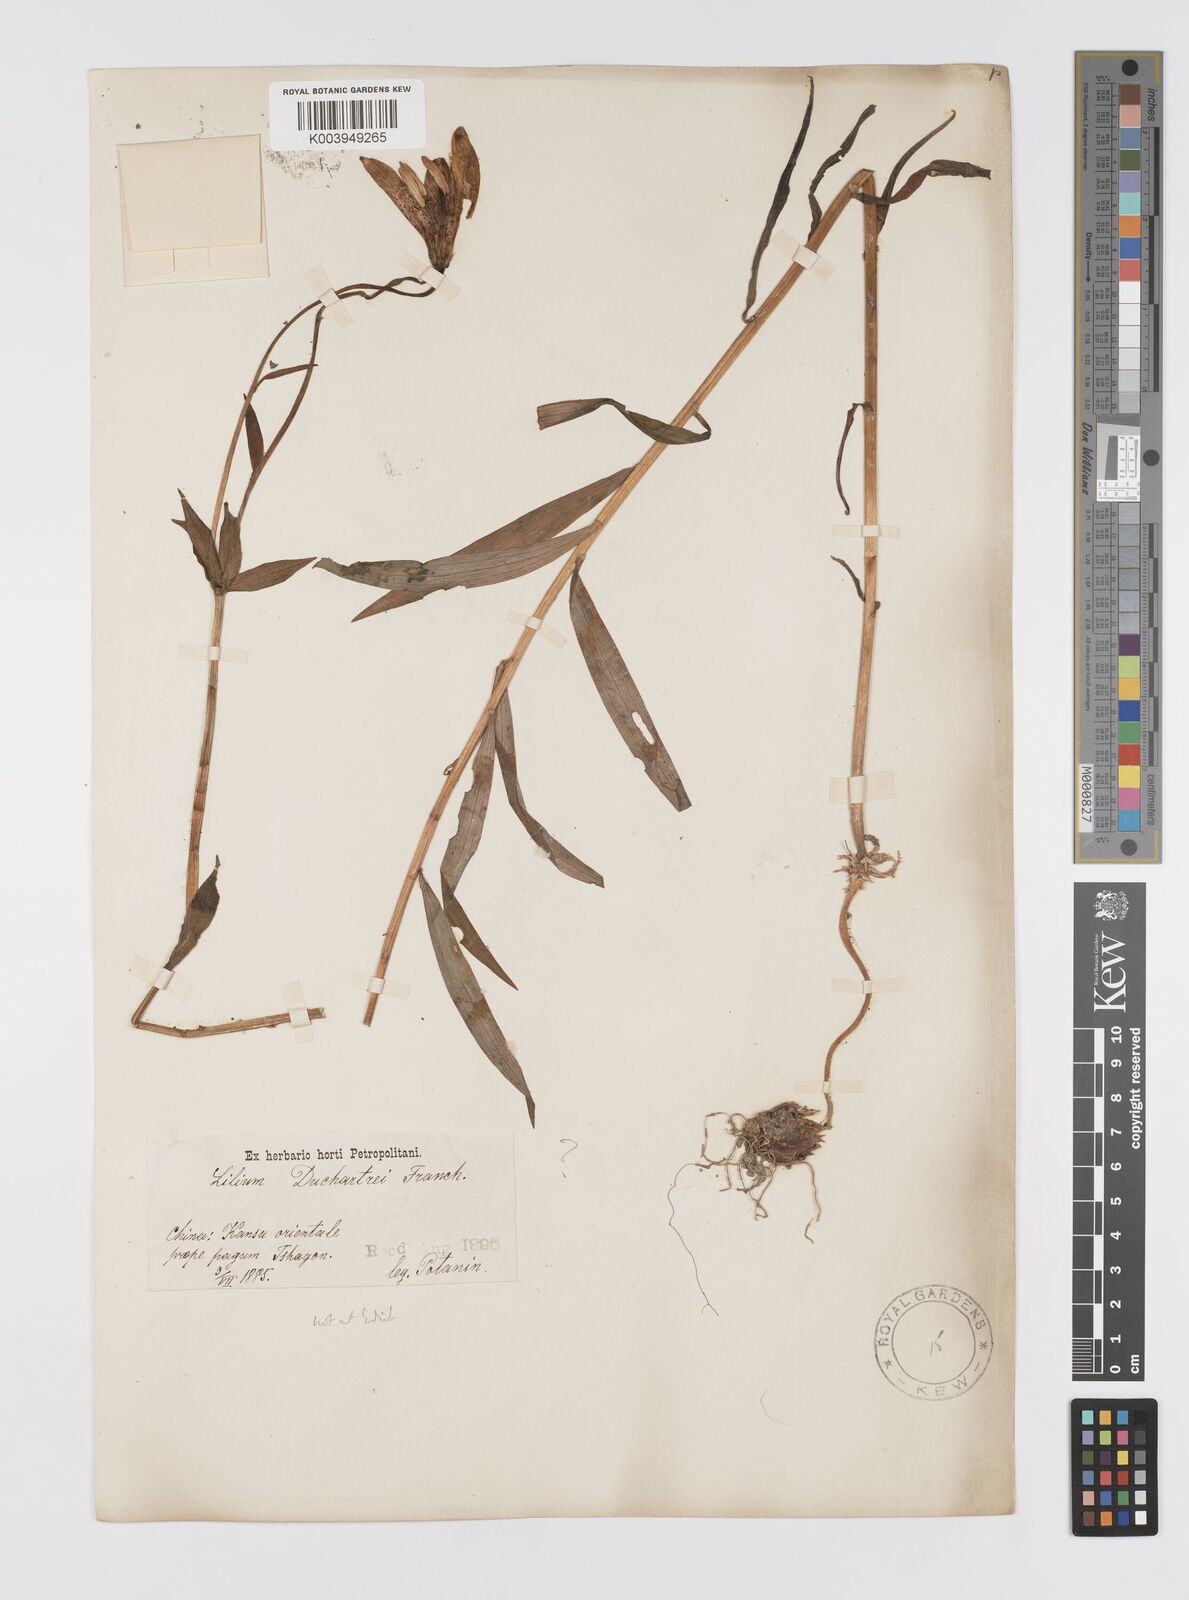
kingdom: Plantae
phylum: Tracheophyta
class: Liliopsida
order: Liliales
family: Liliaceae
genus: Lilium
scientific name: Lilium duchartrei
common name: Duchartre lily
